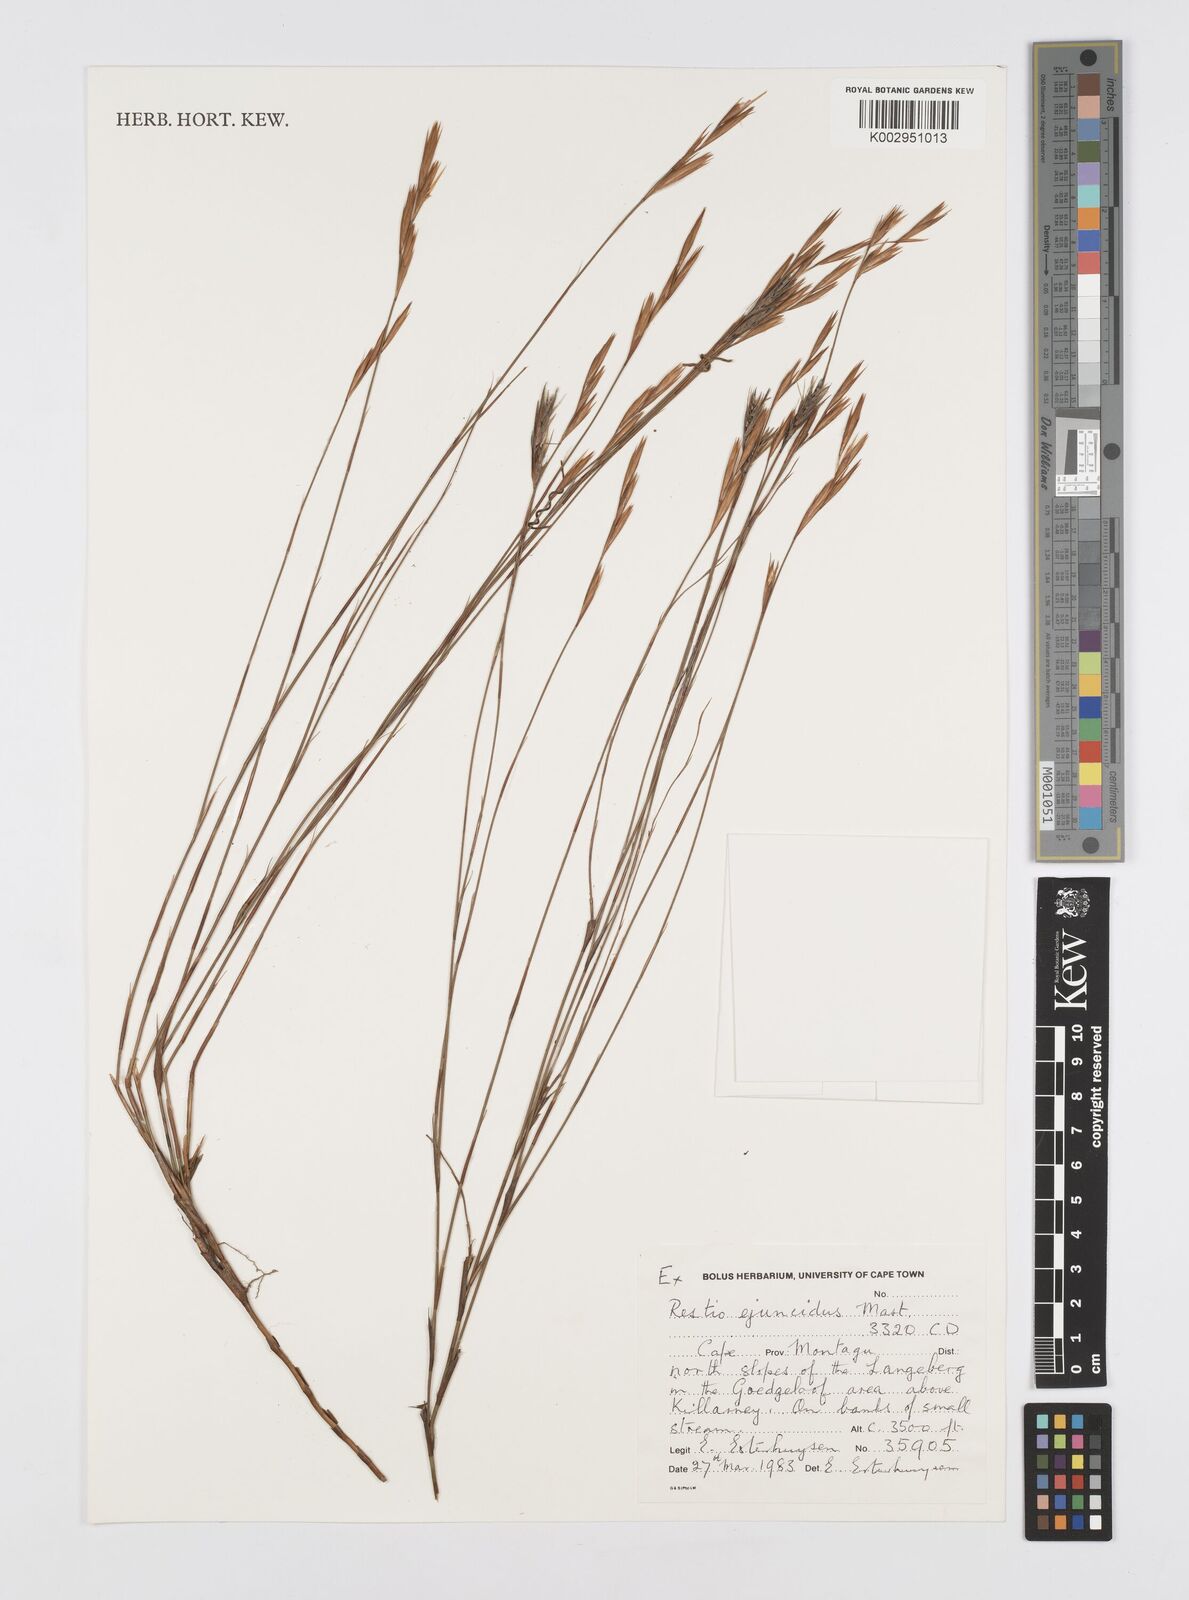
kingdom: Plantae
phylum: Tracheophyta
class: Liliopsida
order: Poales
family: Restionaceae
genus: Restio
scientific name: Restio ejuncidus
